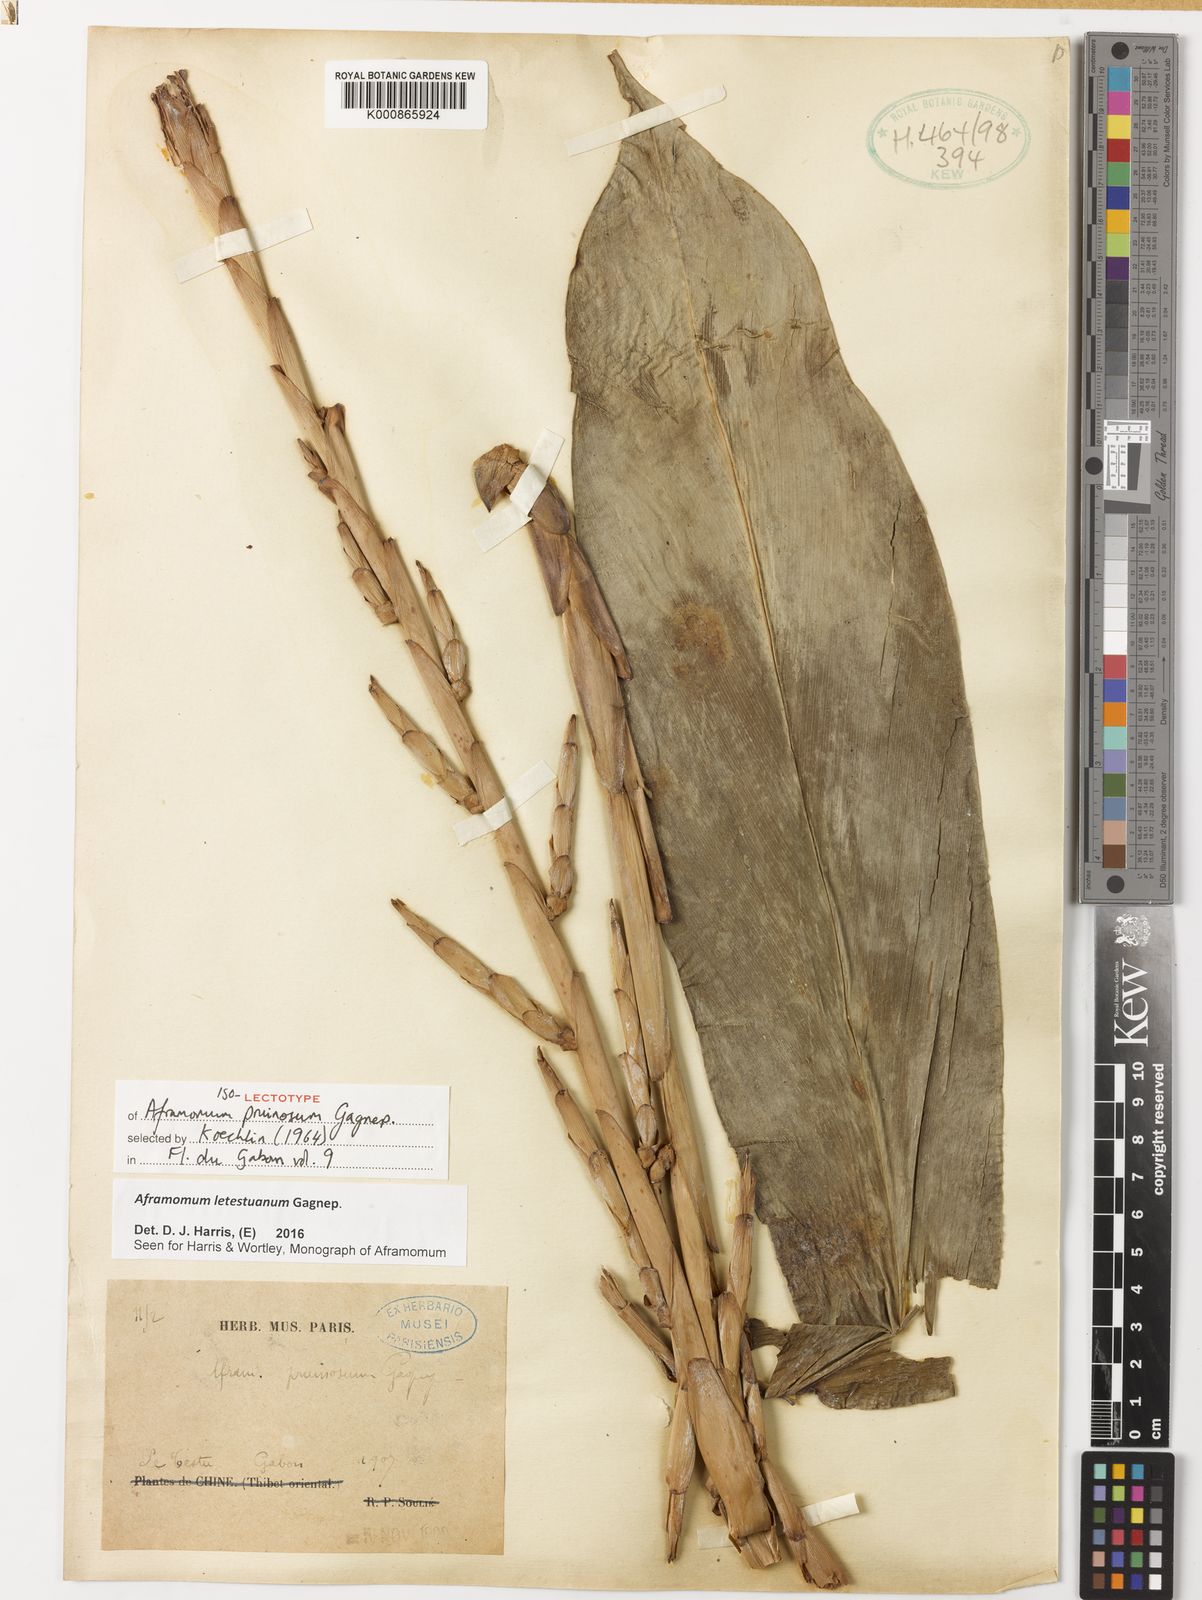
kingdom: Plantae
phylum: Tracheophyta
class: Liliopsida
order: Zingiberales
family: Zingiberaceae
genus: Aframomum
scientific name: Aframomum letestuanum
